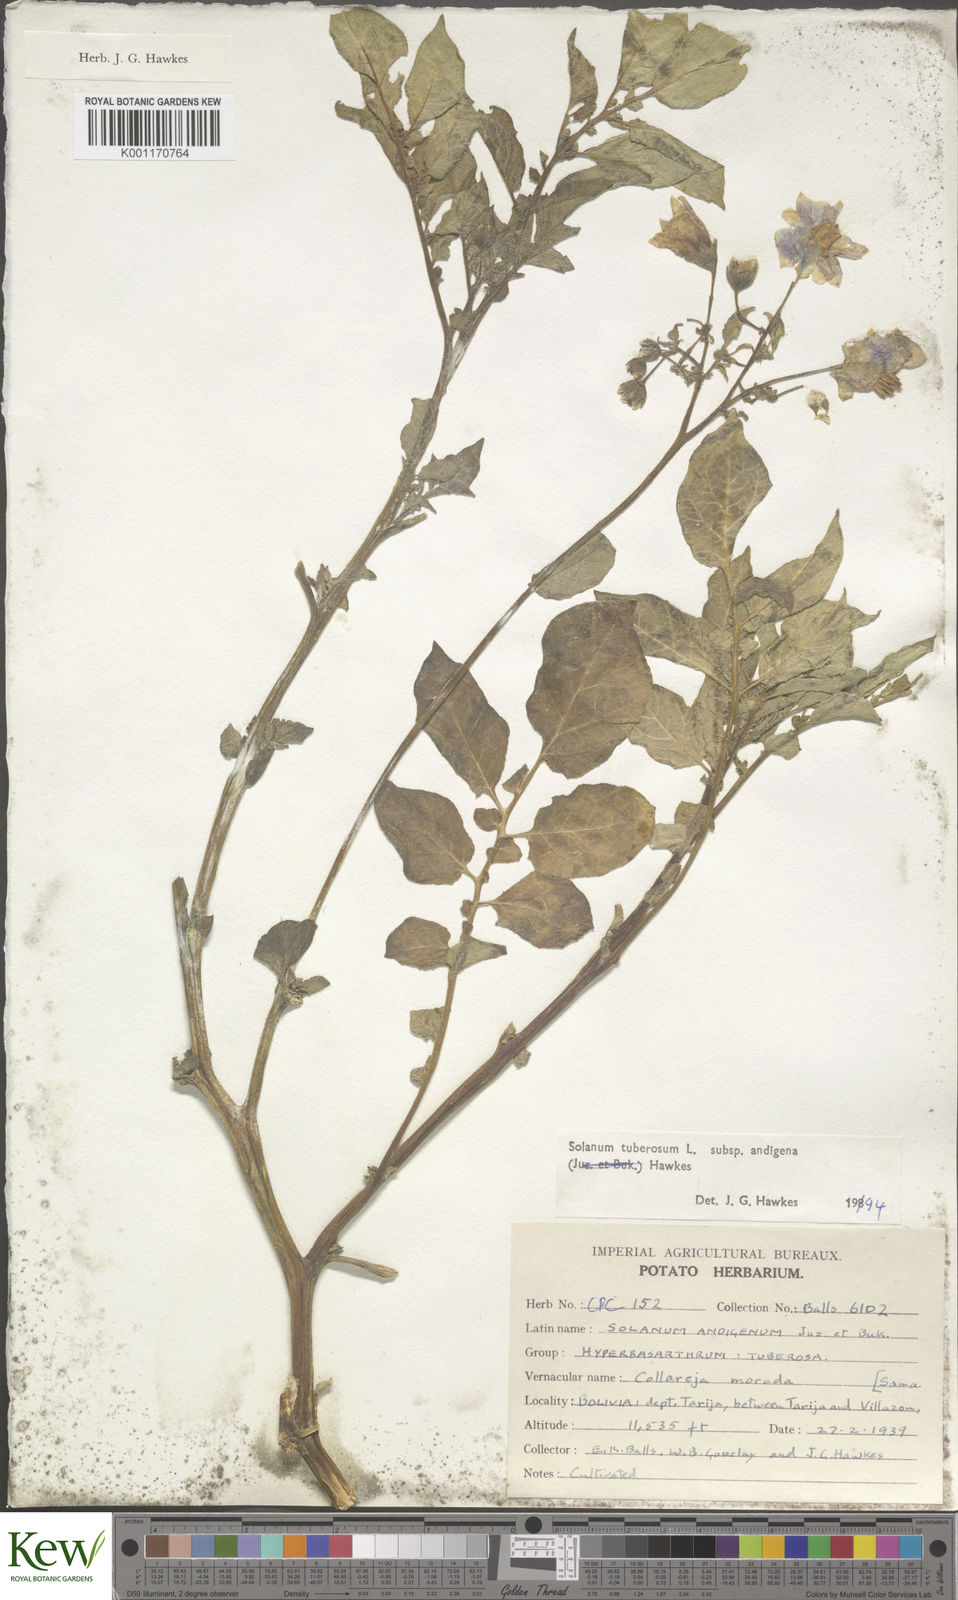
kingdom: Plantae
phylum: Tracheophyta
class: Magnoliopsida
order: Solanales
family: Solanaceae
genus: Solanum
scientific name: Solanum tuberosum
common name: Potato
